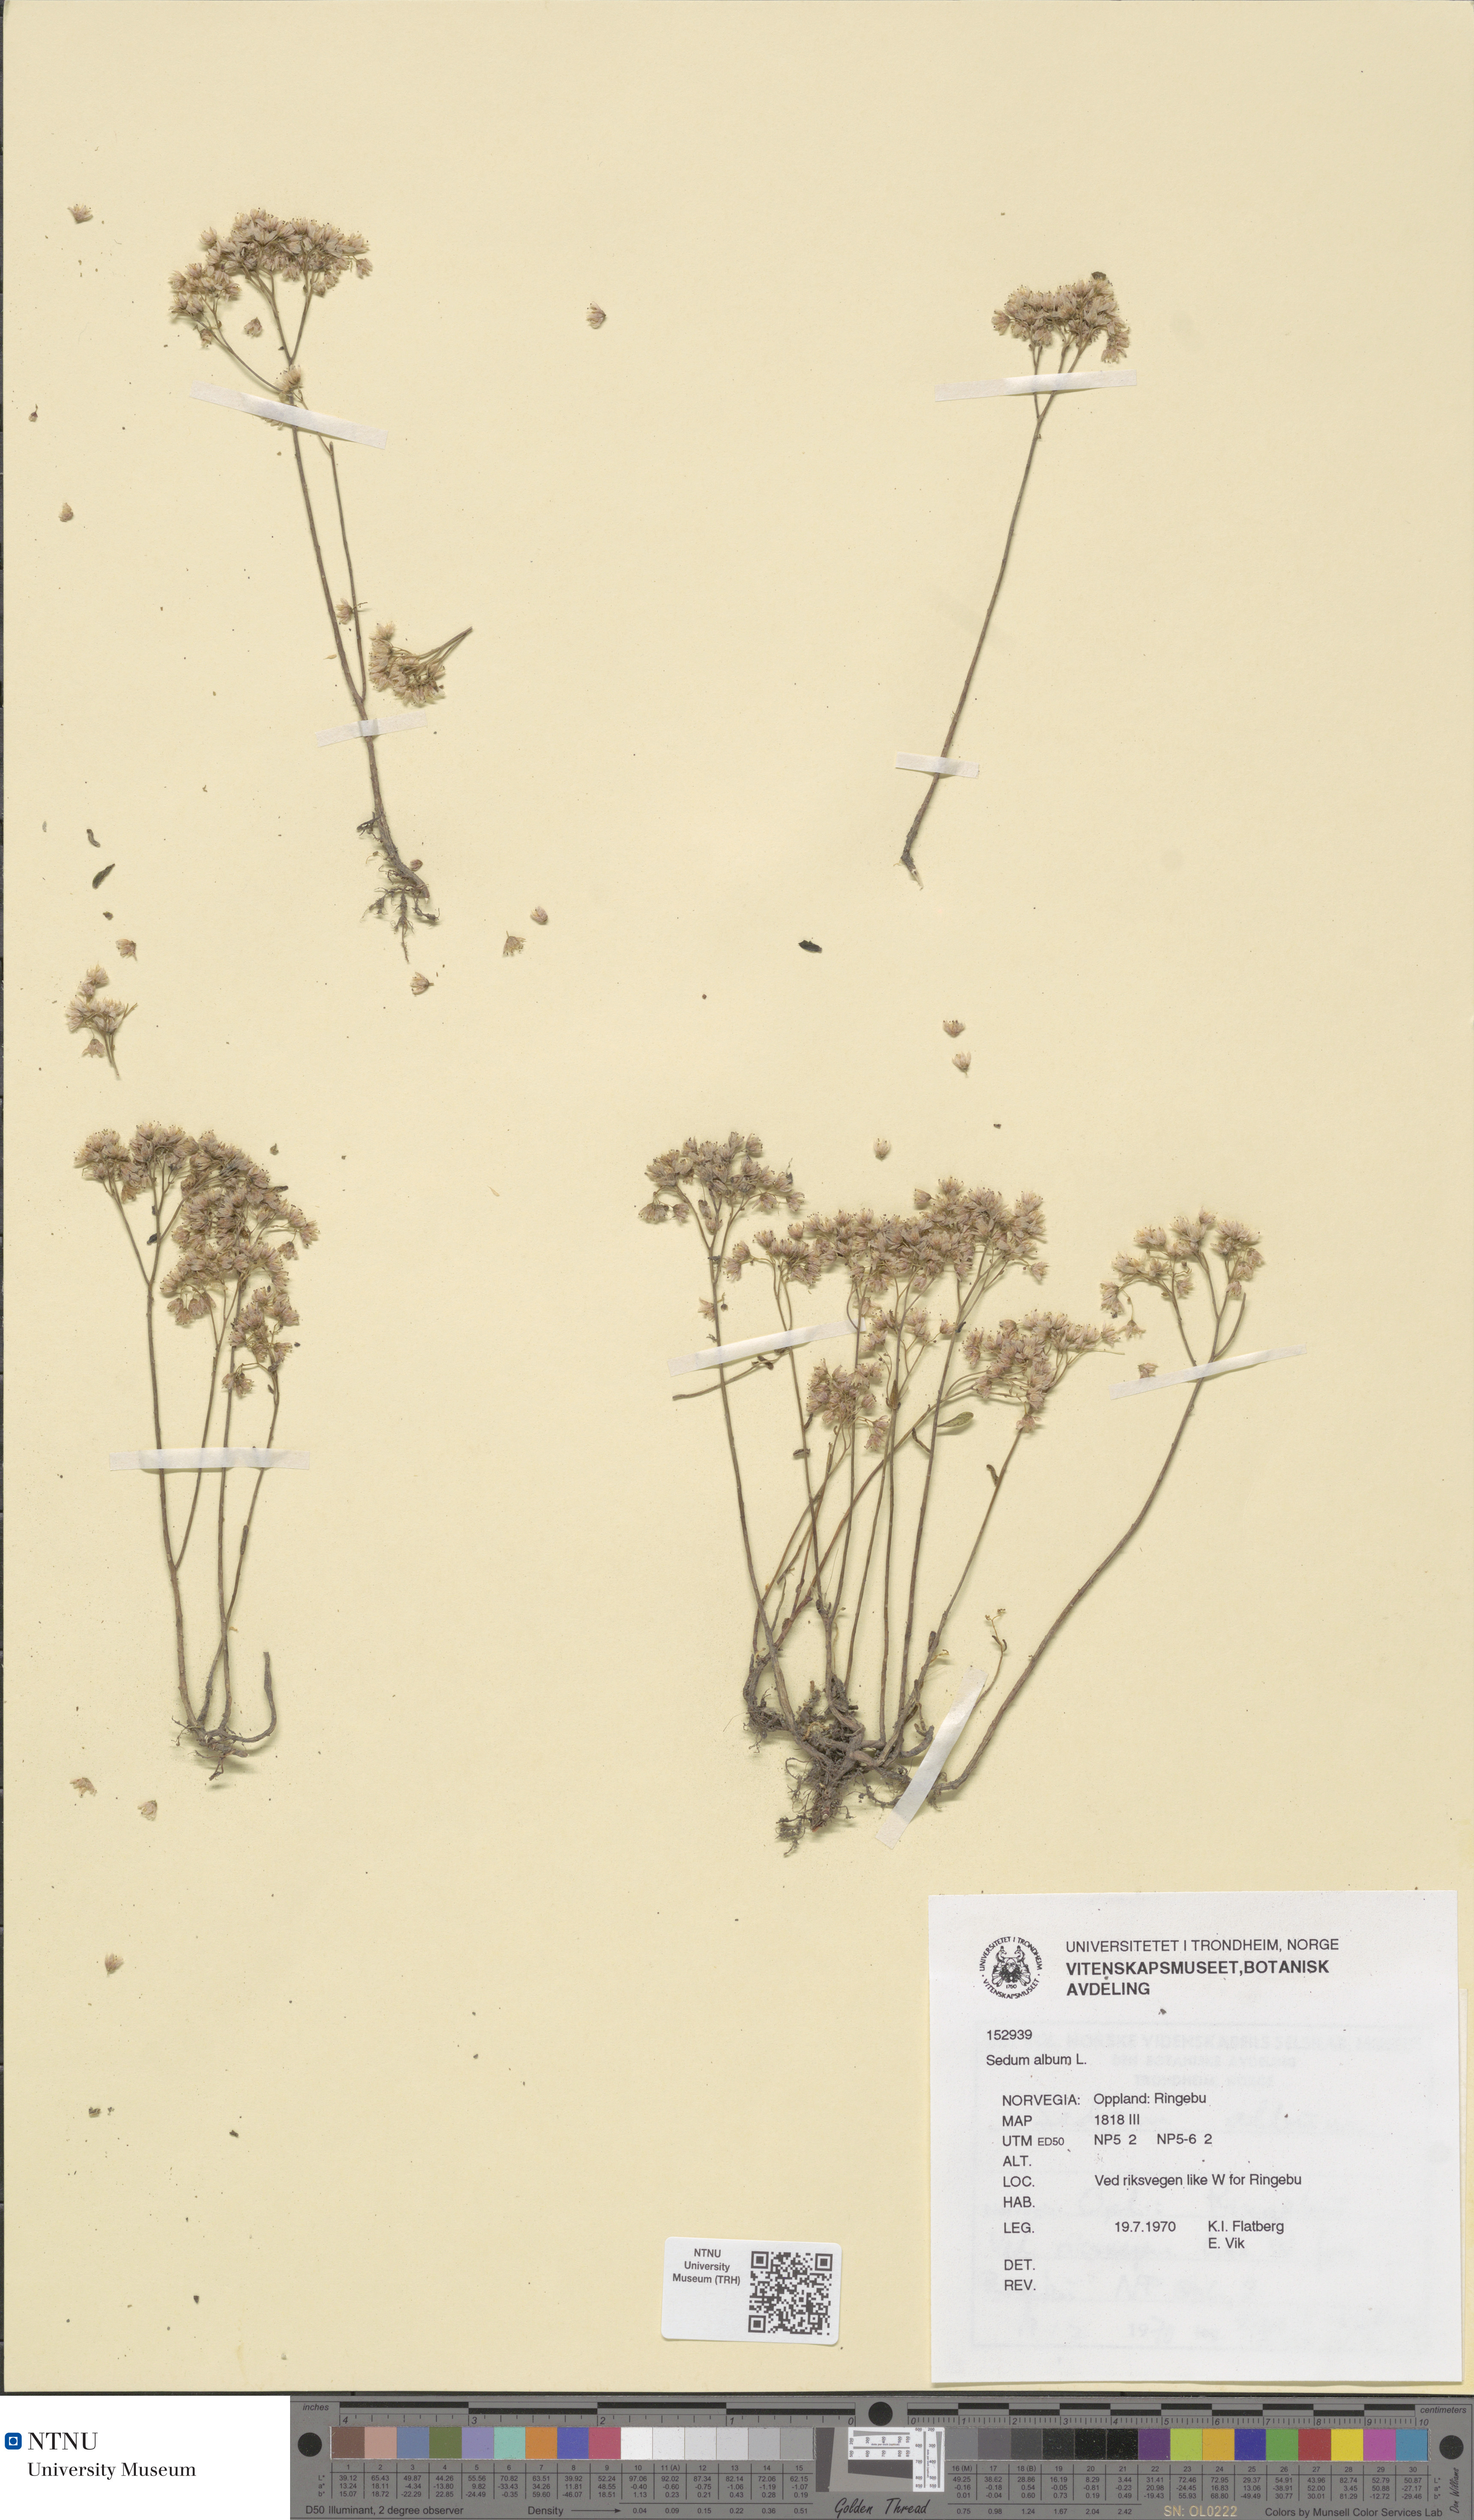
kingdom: Plantae
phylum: Tracheophyta
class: Magnoliopsida
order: Saxifragales
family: Crassulaceae
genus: Sedum
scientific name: Sedum album
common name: White stonecrop
